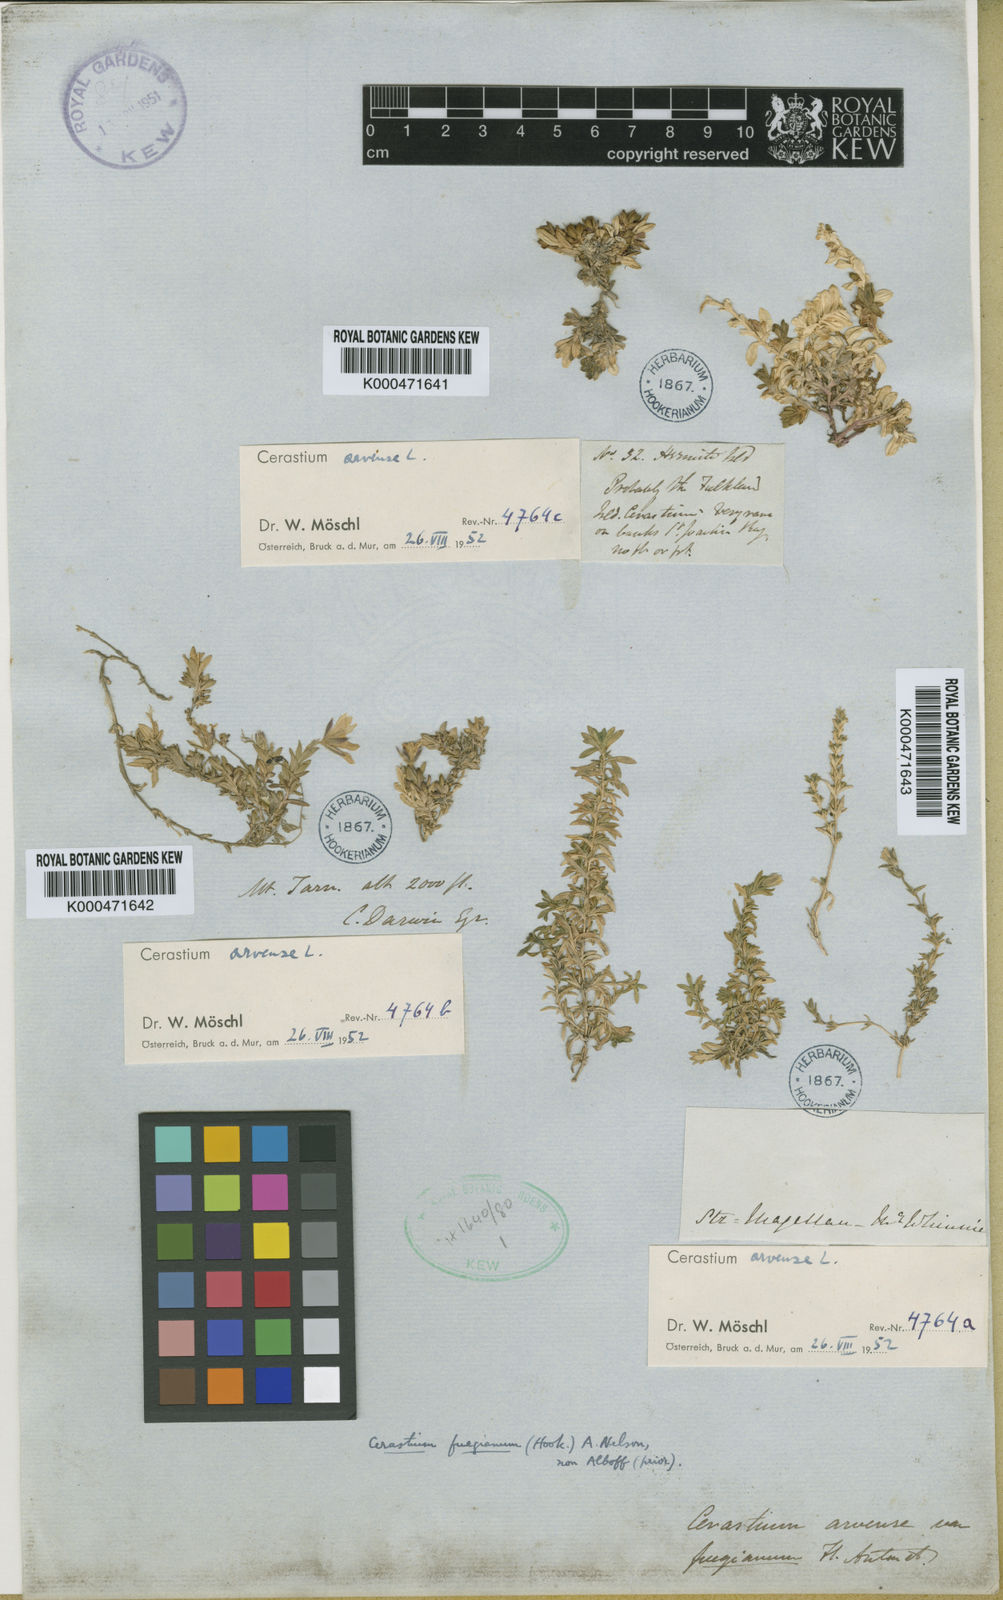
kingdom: Plantae
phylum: Tracheophyta
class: Magnoliopsida
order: Caryophyllales
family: Caryophyllaceae
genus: Cerastium
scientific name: Cerastium arvense
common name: Field mouse-ear
